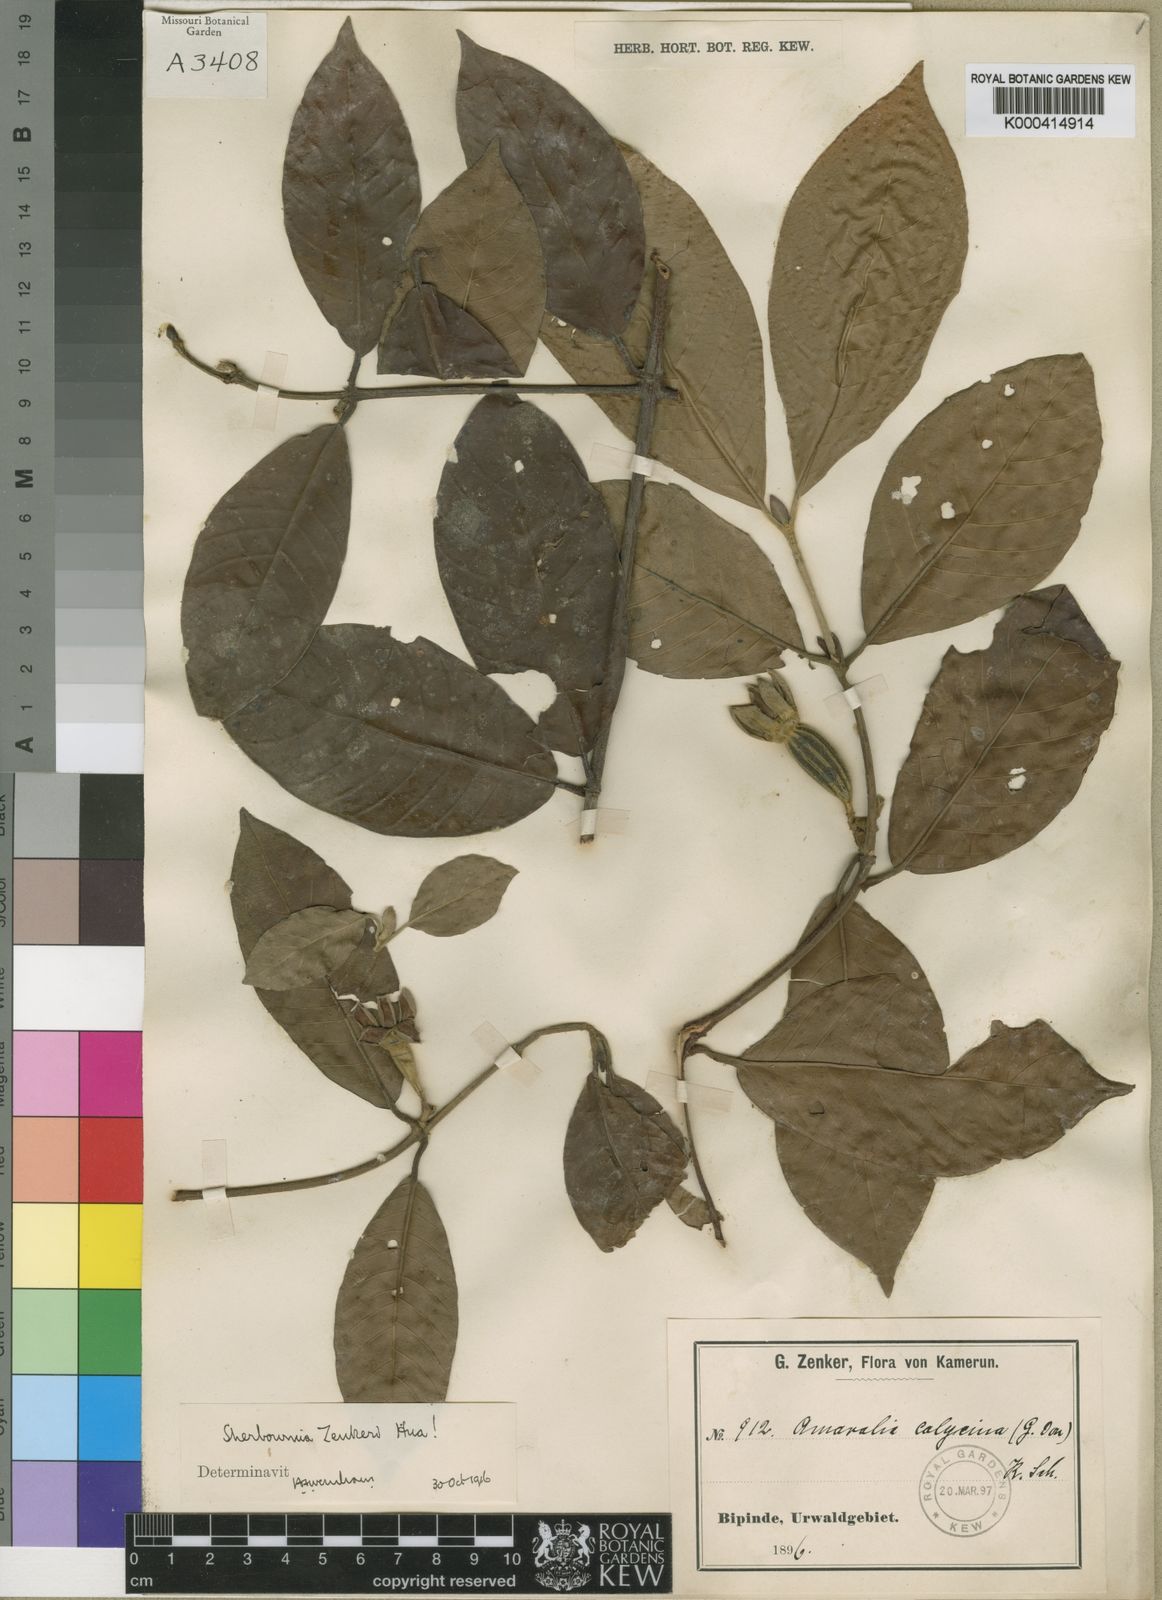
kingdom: Plantae
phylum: Tracheophyta
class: Magnoliopsida
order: Gentianales
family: Rubiaceae
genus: Sherbournia
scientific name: Sherbournia zenkeri
